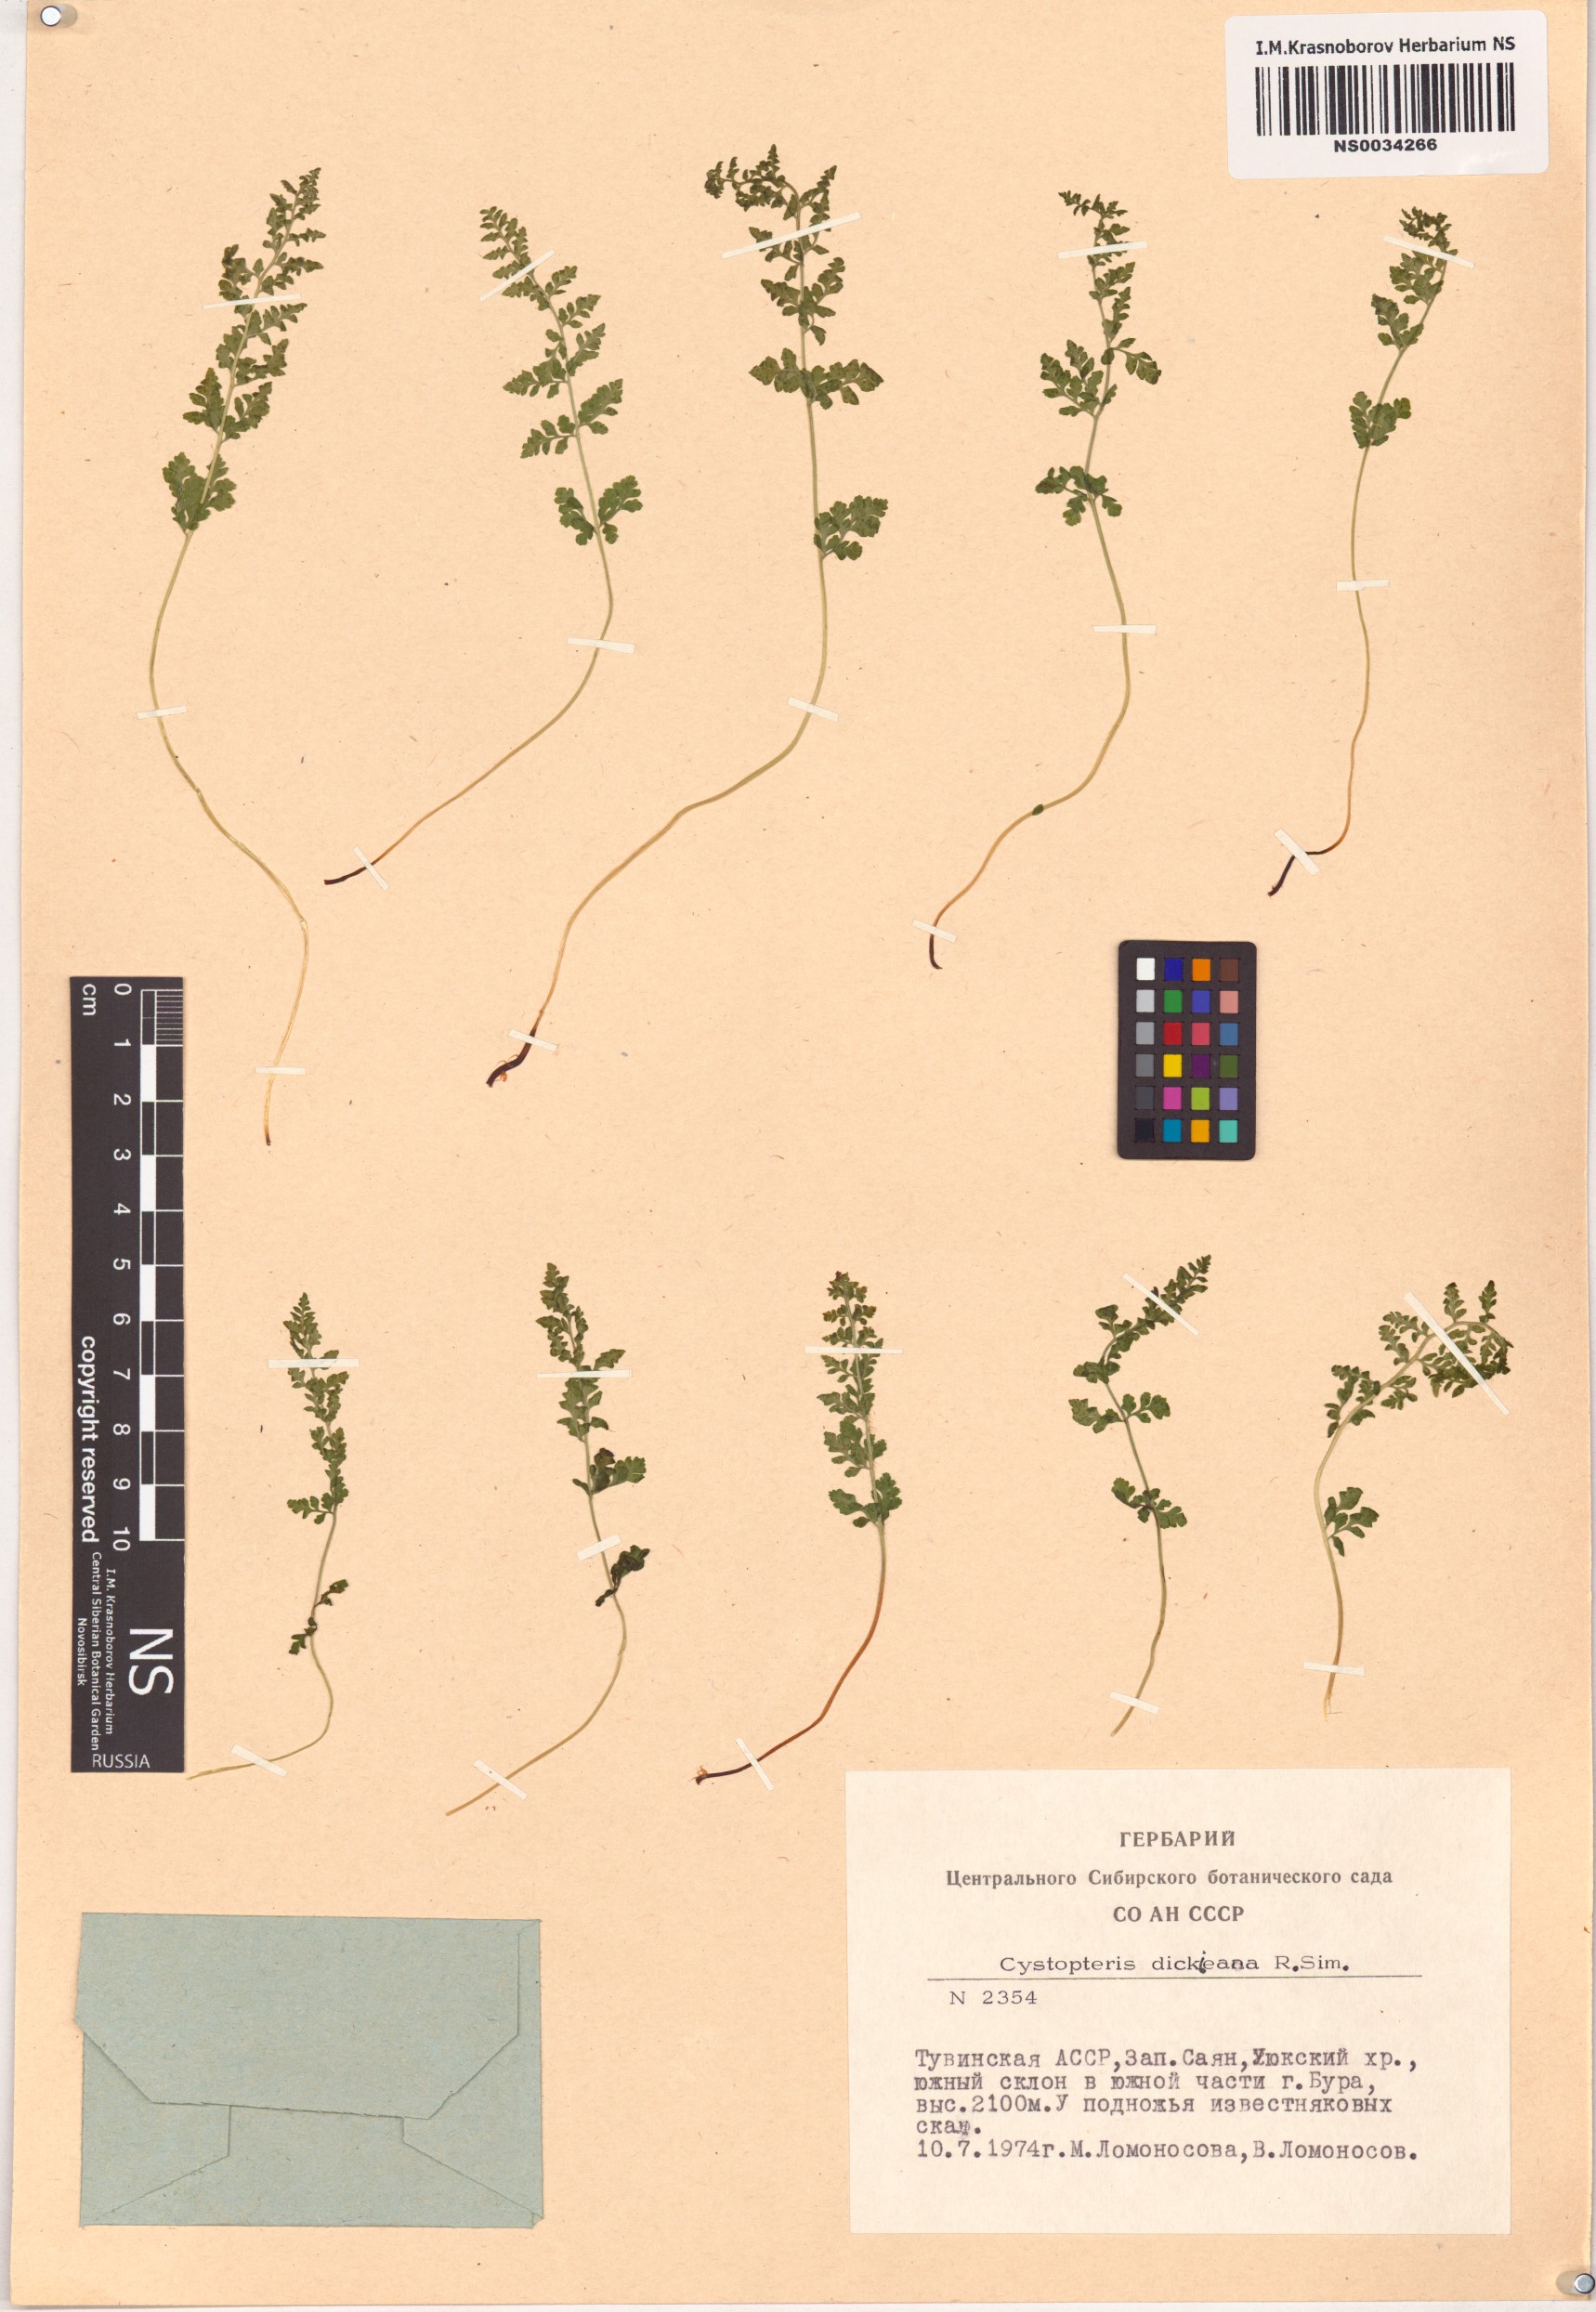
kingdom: Plantae
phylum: Tracheophyta
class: Polypodiopsida
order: Polypodiales
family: Cystopteridaceae
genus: Cystopteris
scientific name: Cystopteris dickieana
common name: Dickie's bladder-fern
